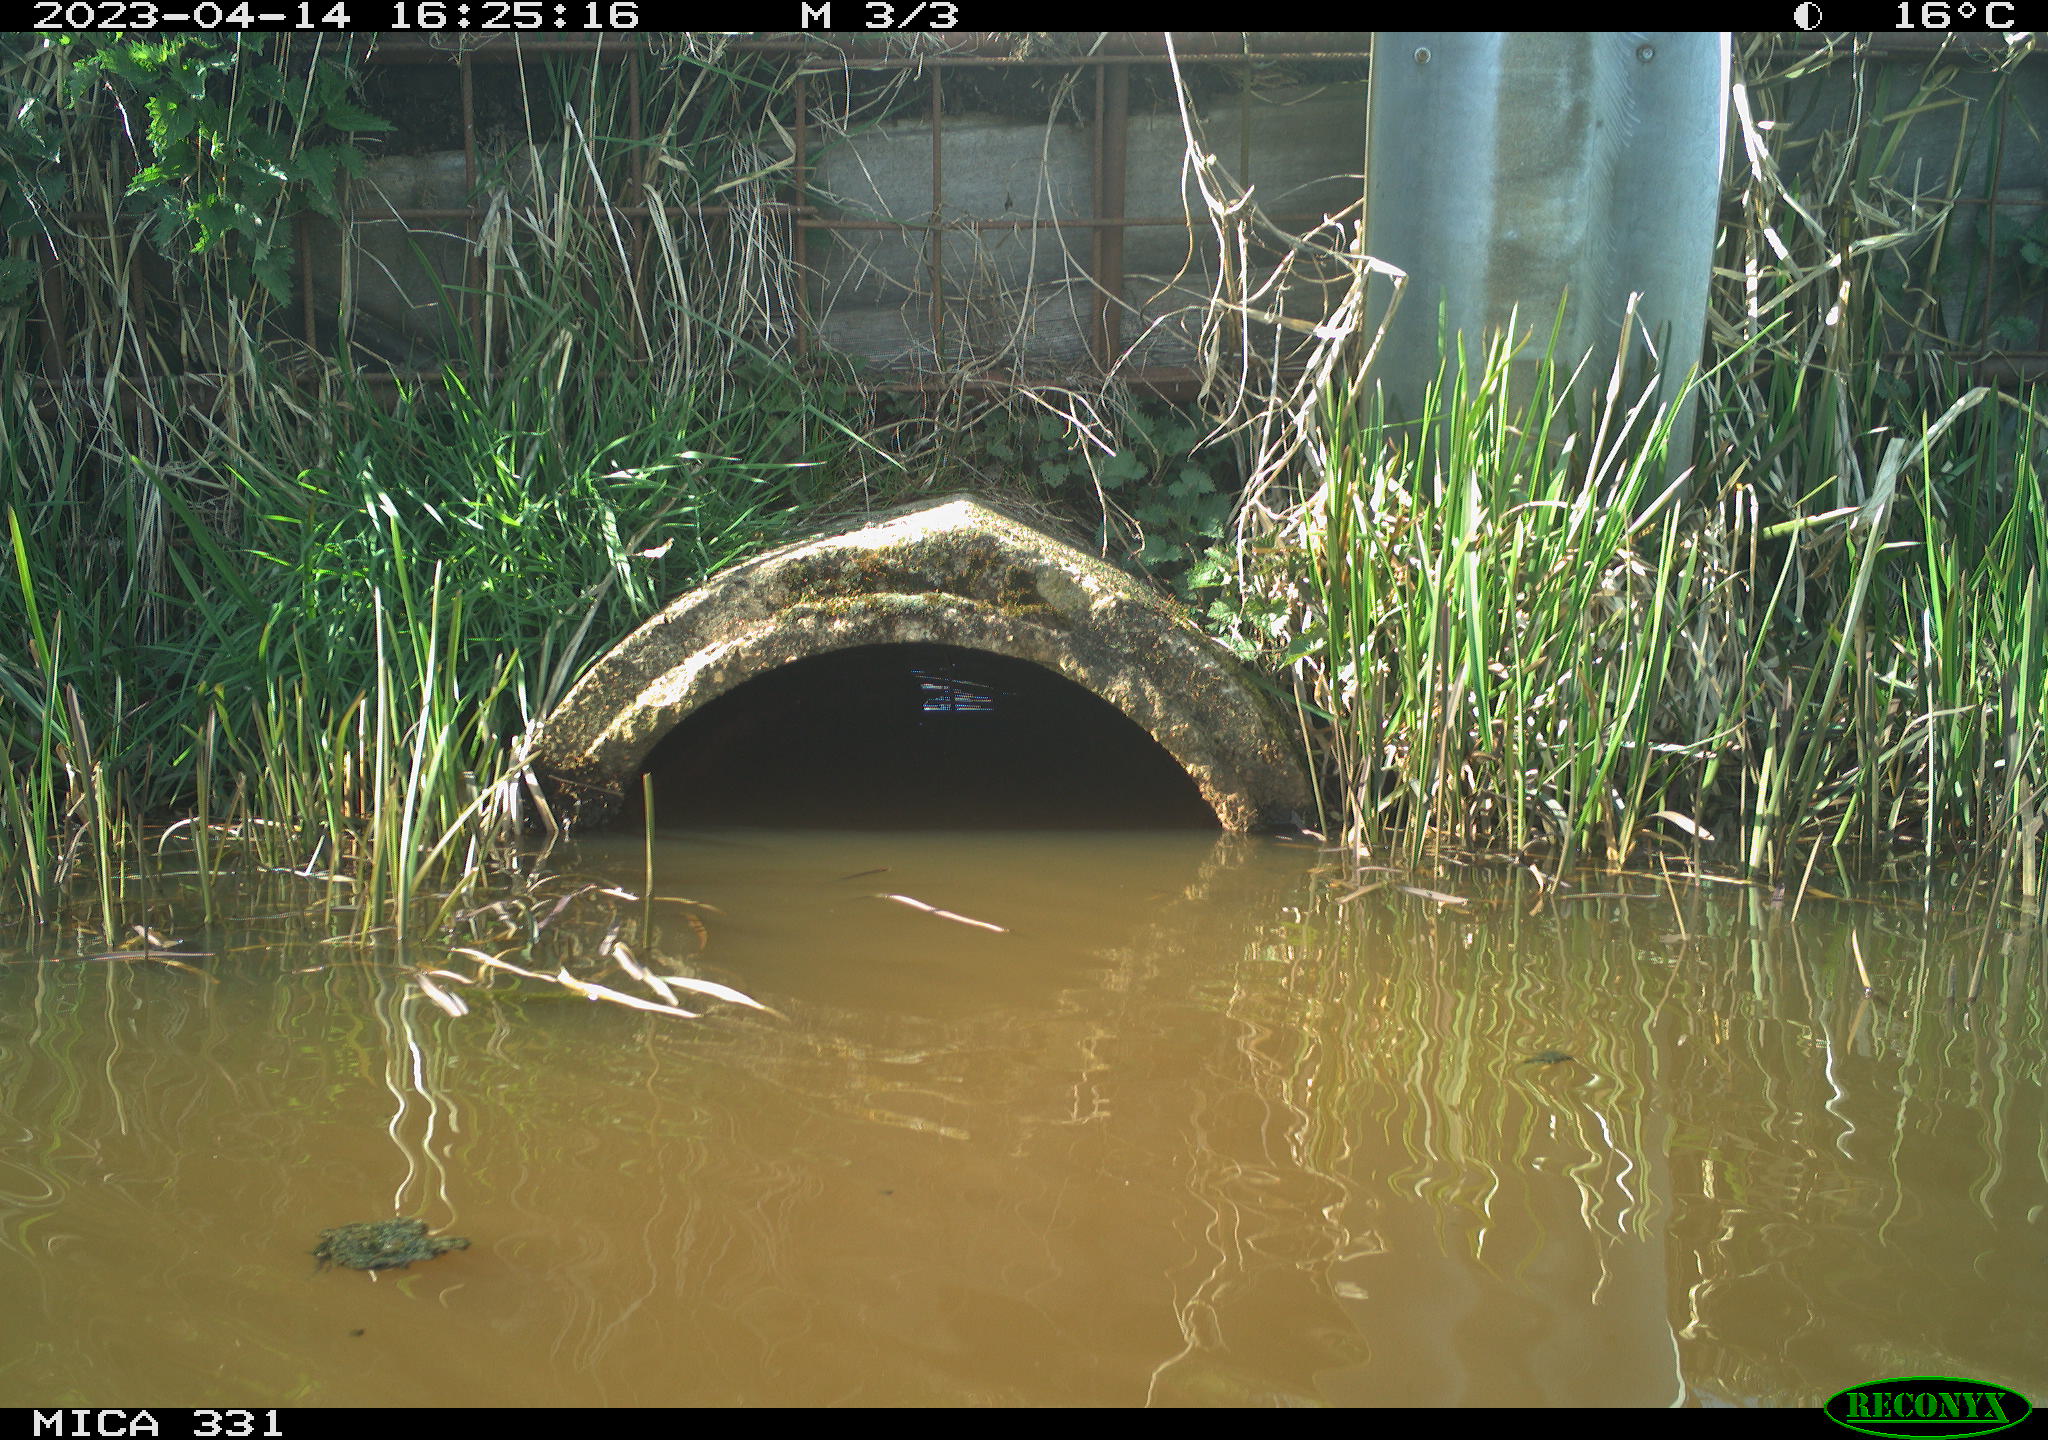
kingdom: Animalia
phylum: Chordata
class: Aves
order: Gruiformes
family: Rallidae
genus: Fulica
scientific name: Fulica atra
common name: Eurasian coot
